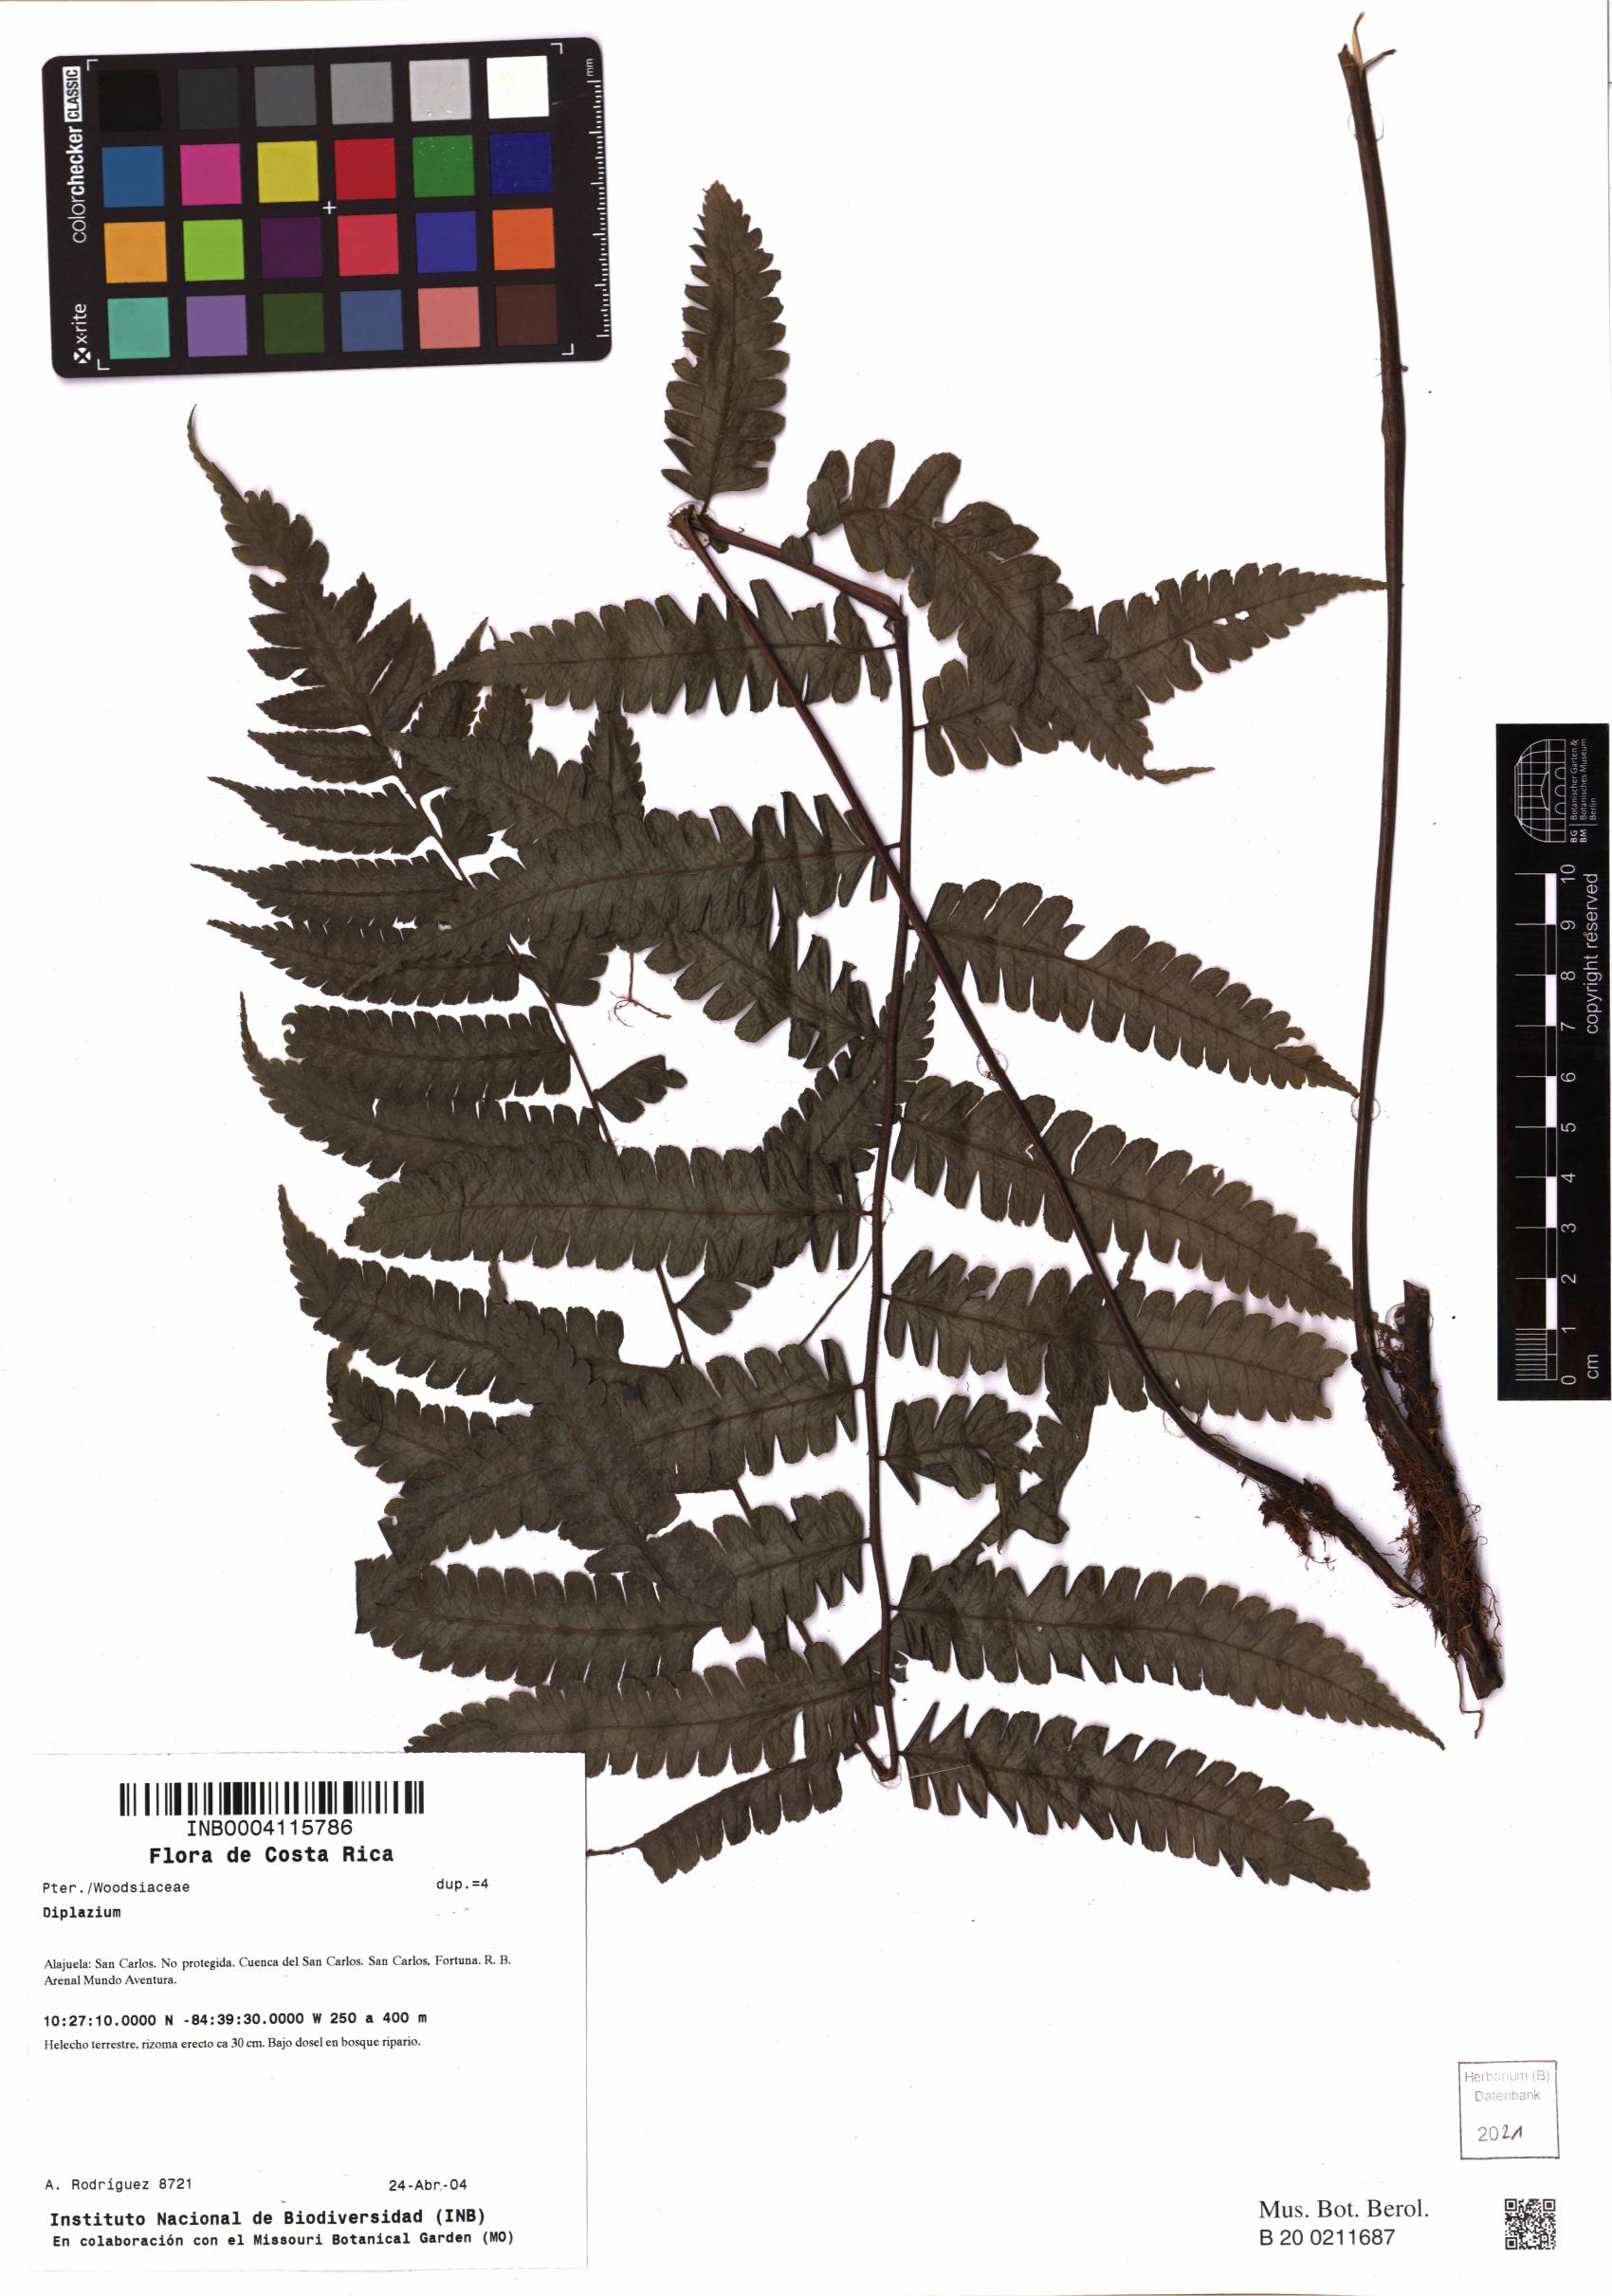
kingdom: Plantae
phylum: Tracheophyta
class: Polypodiopsida
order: Polypodiales
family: Athyriaceae
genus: Diplazium
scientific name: Diplazium
